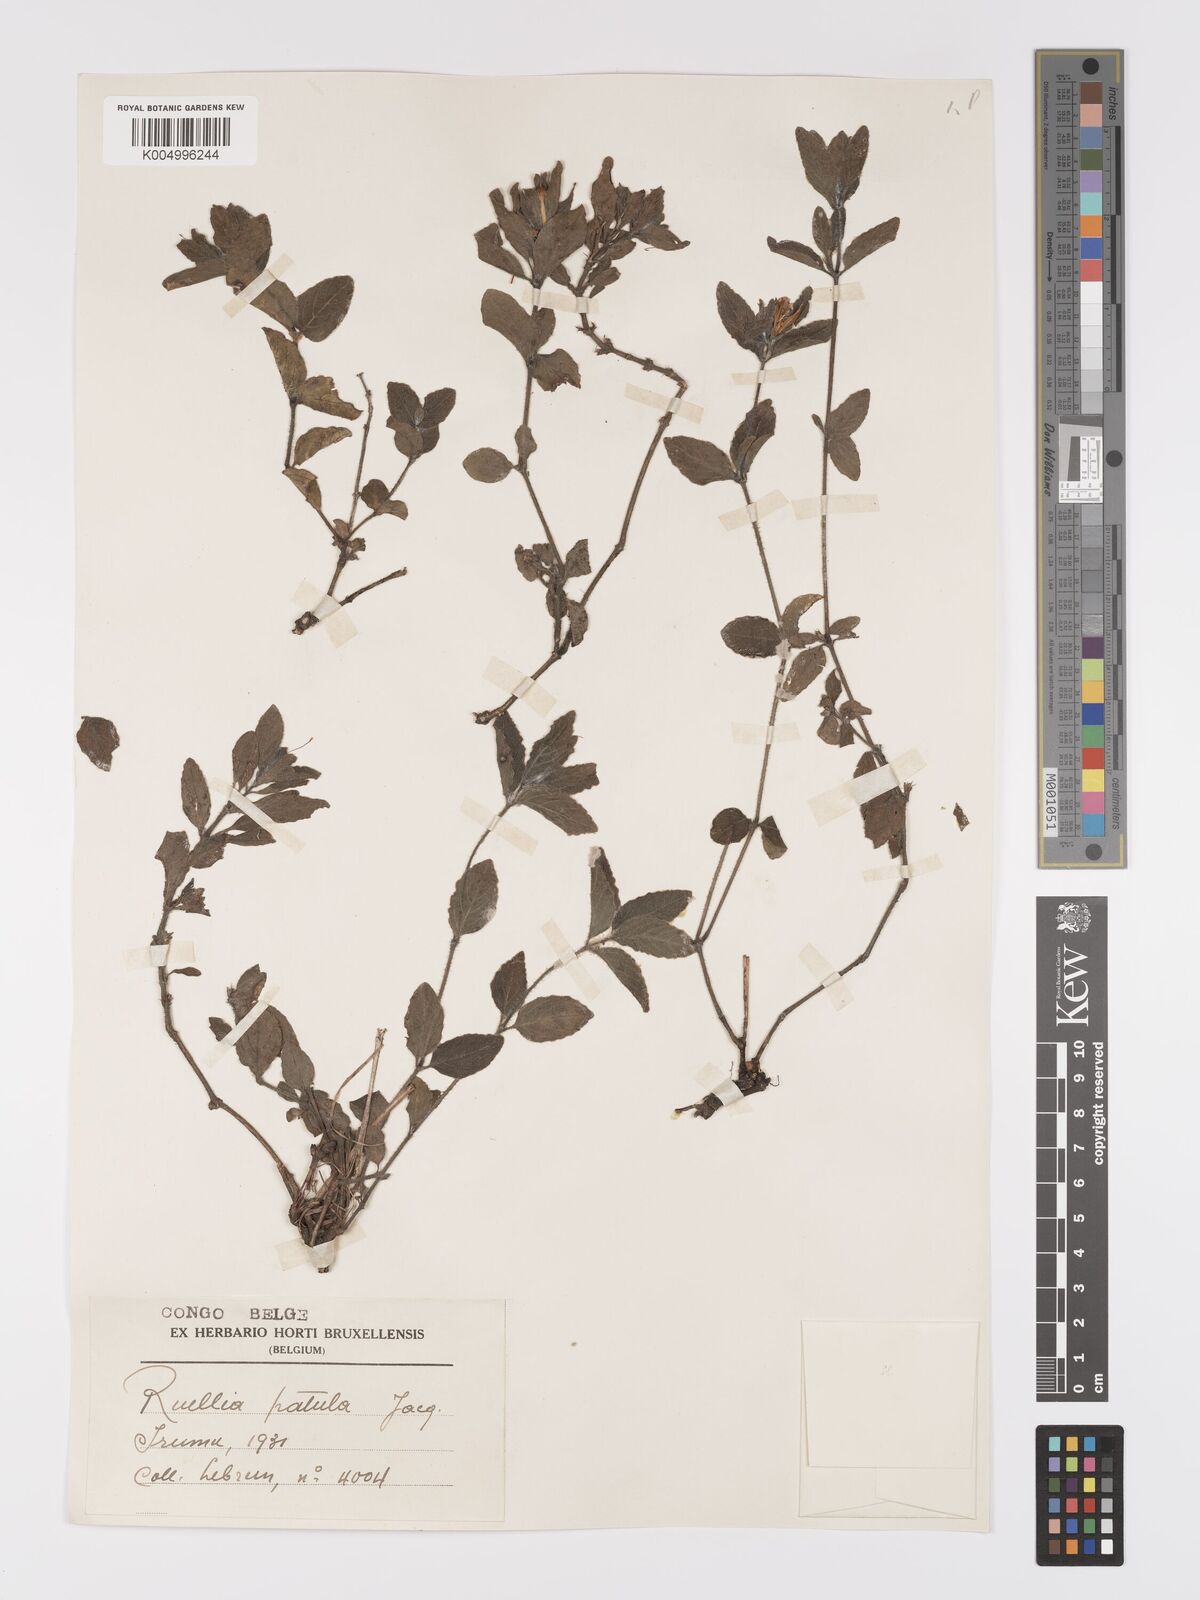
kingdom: Plantae
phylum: Tracheophyta
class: Magnoliopsida
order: Lamiales
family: Acanthaceae
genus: Ruellia
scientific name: Ruellia patula
